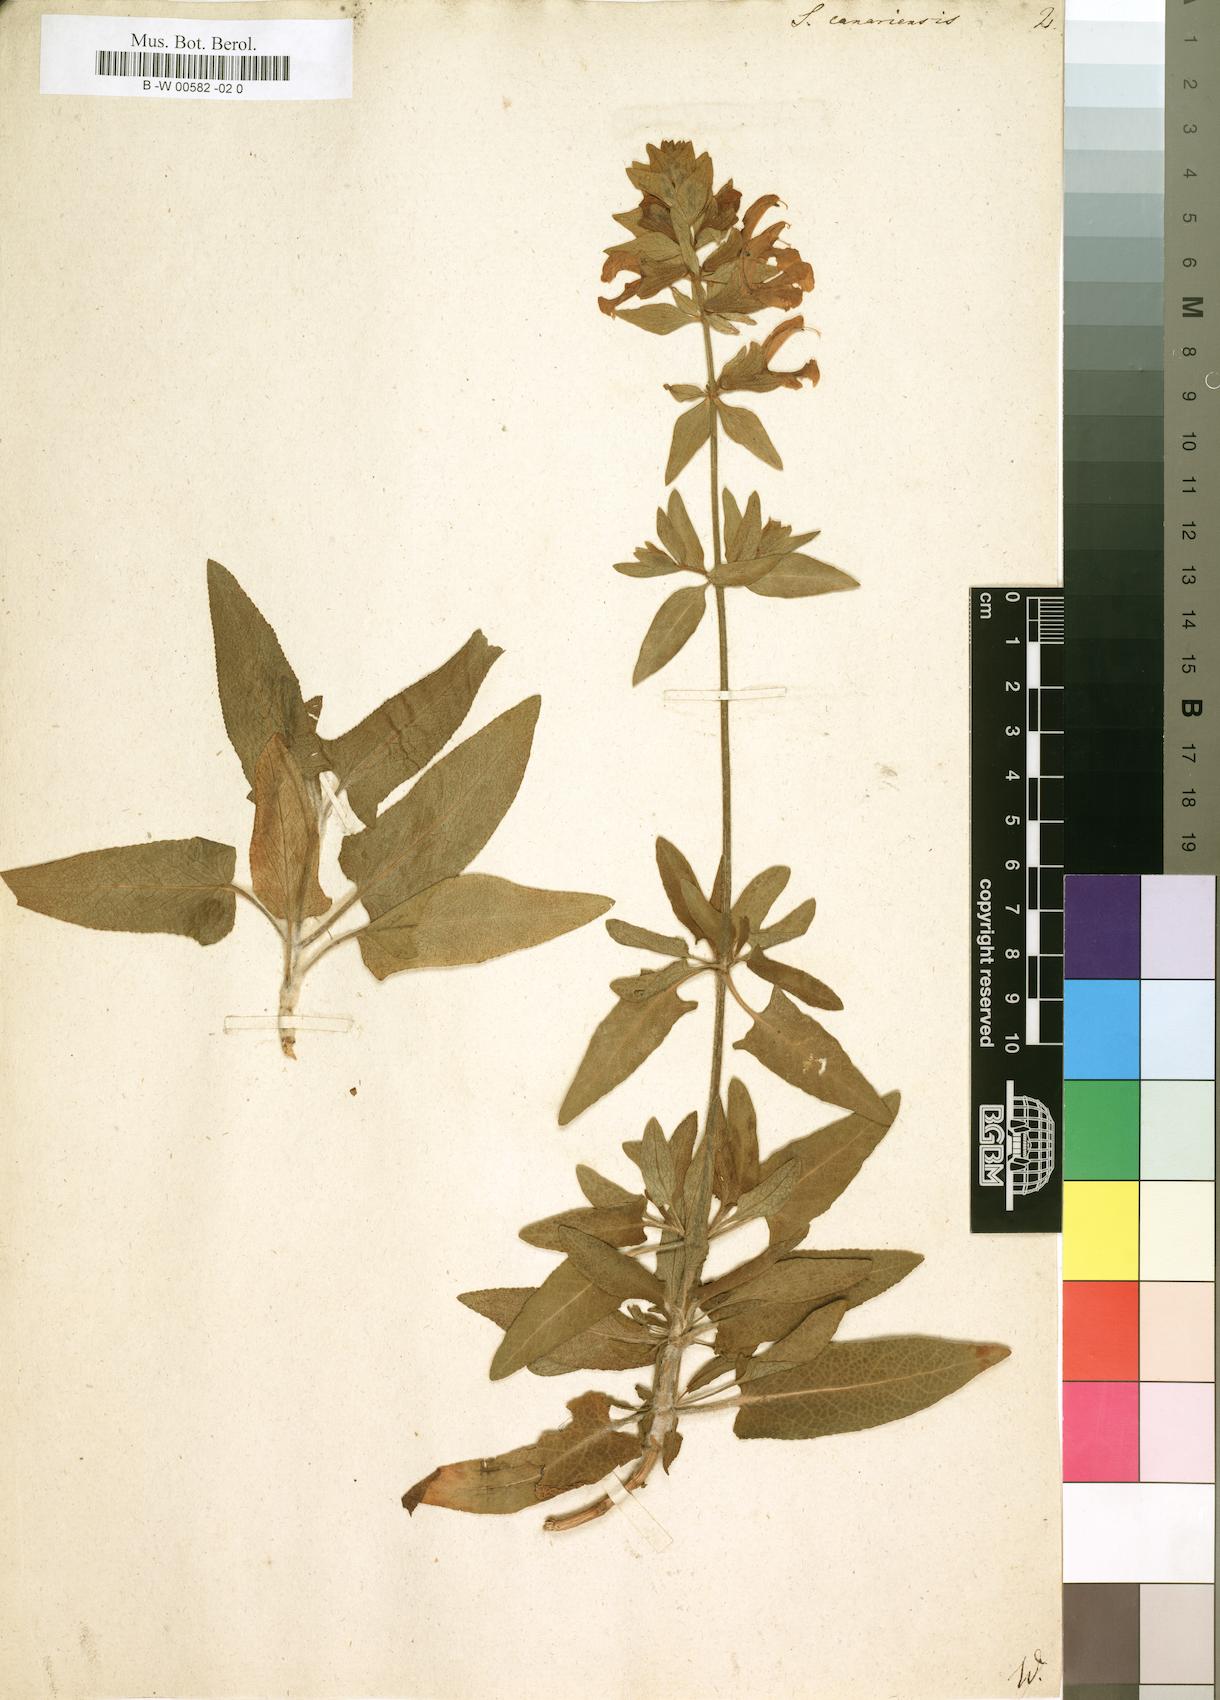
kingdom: Plantae
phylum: Tracheophyta
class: Magnoliopsida
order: Lamiales
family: Lamiaceae
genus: Salvia
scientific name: Salvia canariensis
